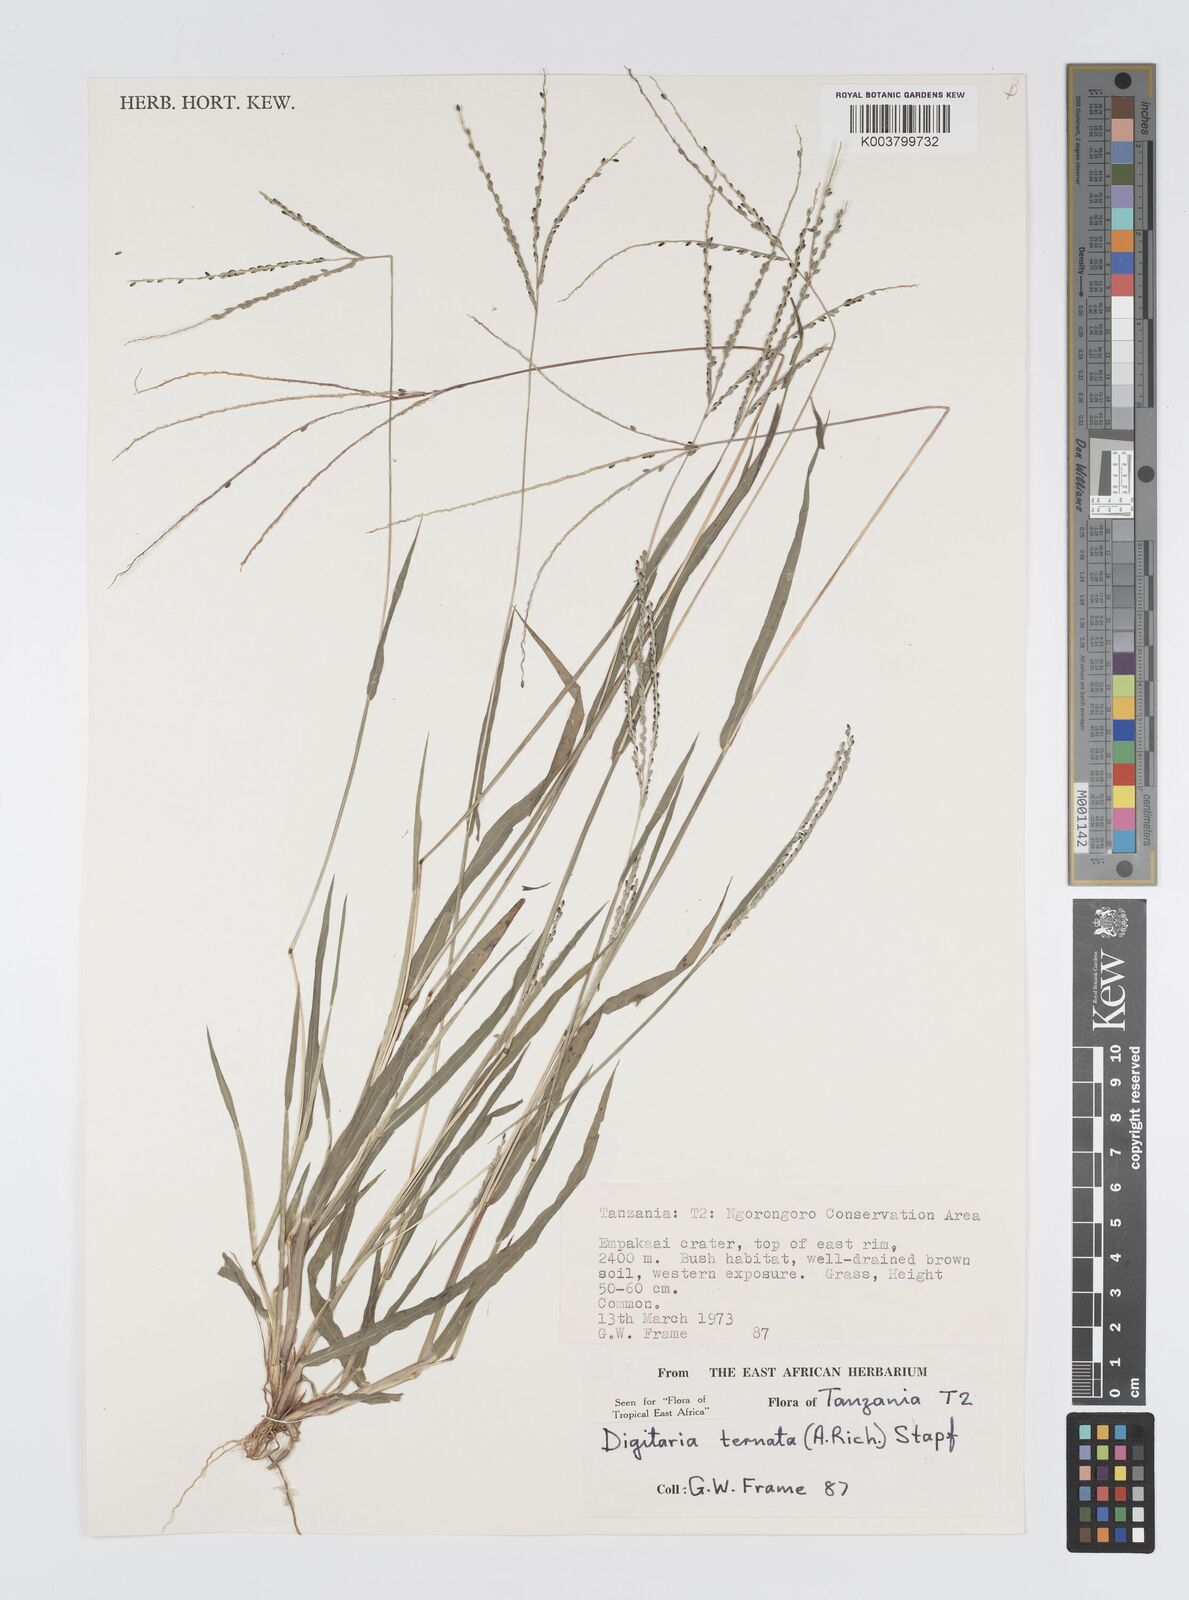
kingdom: Plantae
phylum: Tracheophyta
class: Liliopsida
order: Poales
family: Poaceae
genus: Digitaria
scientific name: Digitaria ternata
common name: Blackseed crabgrass
